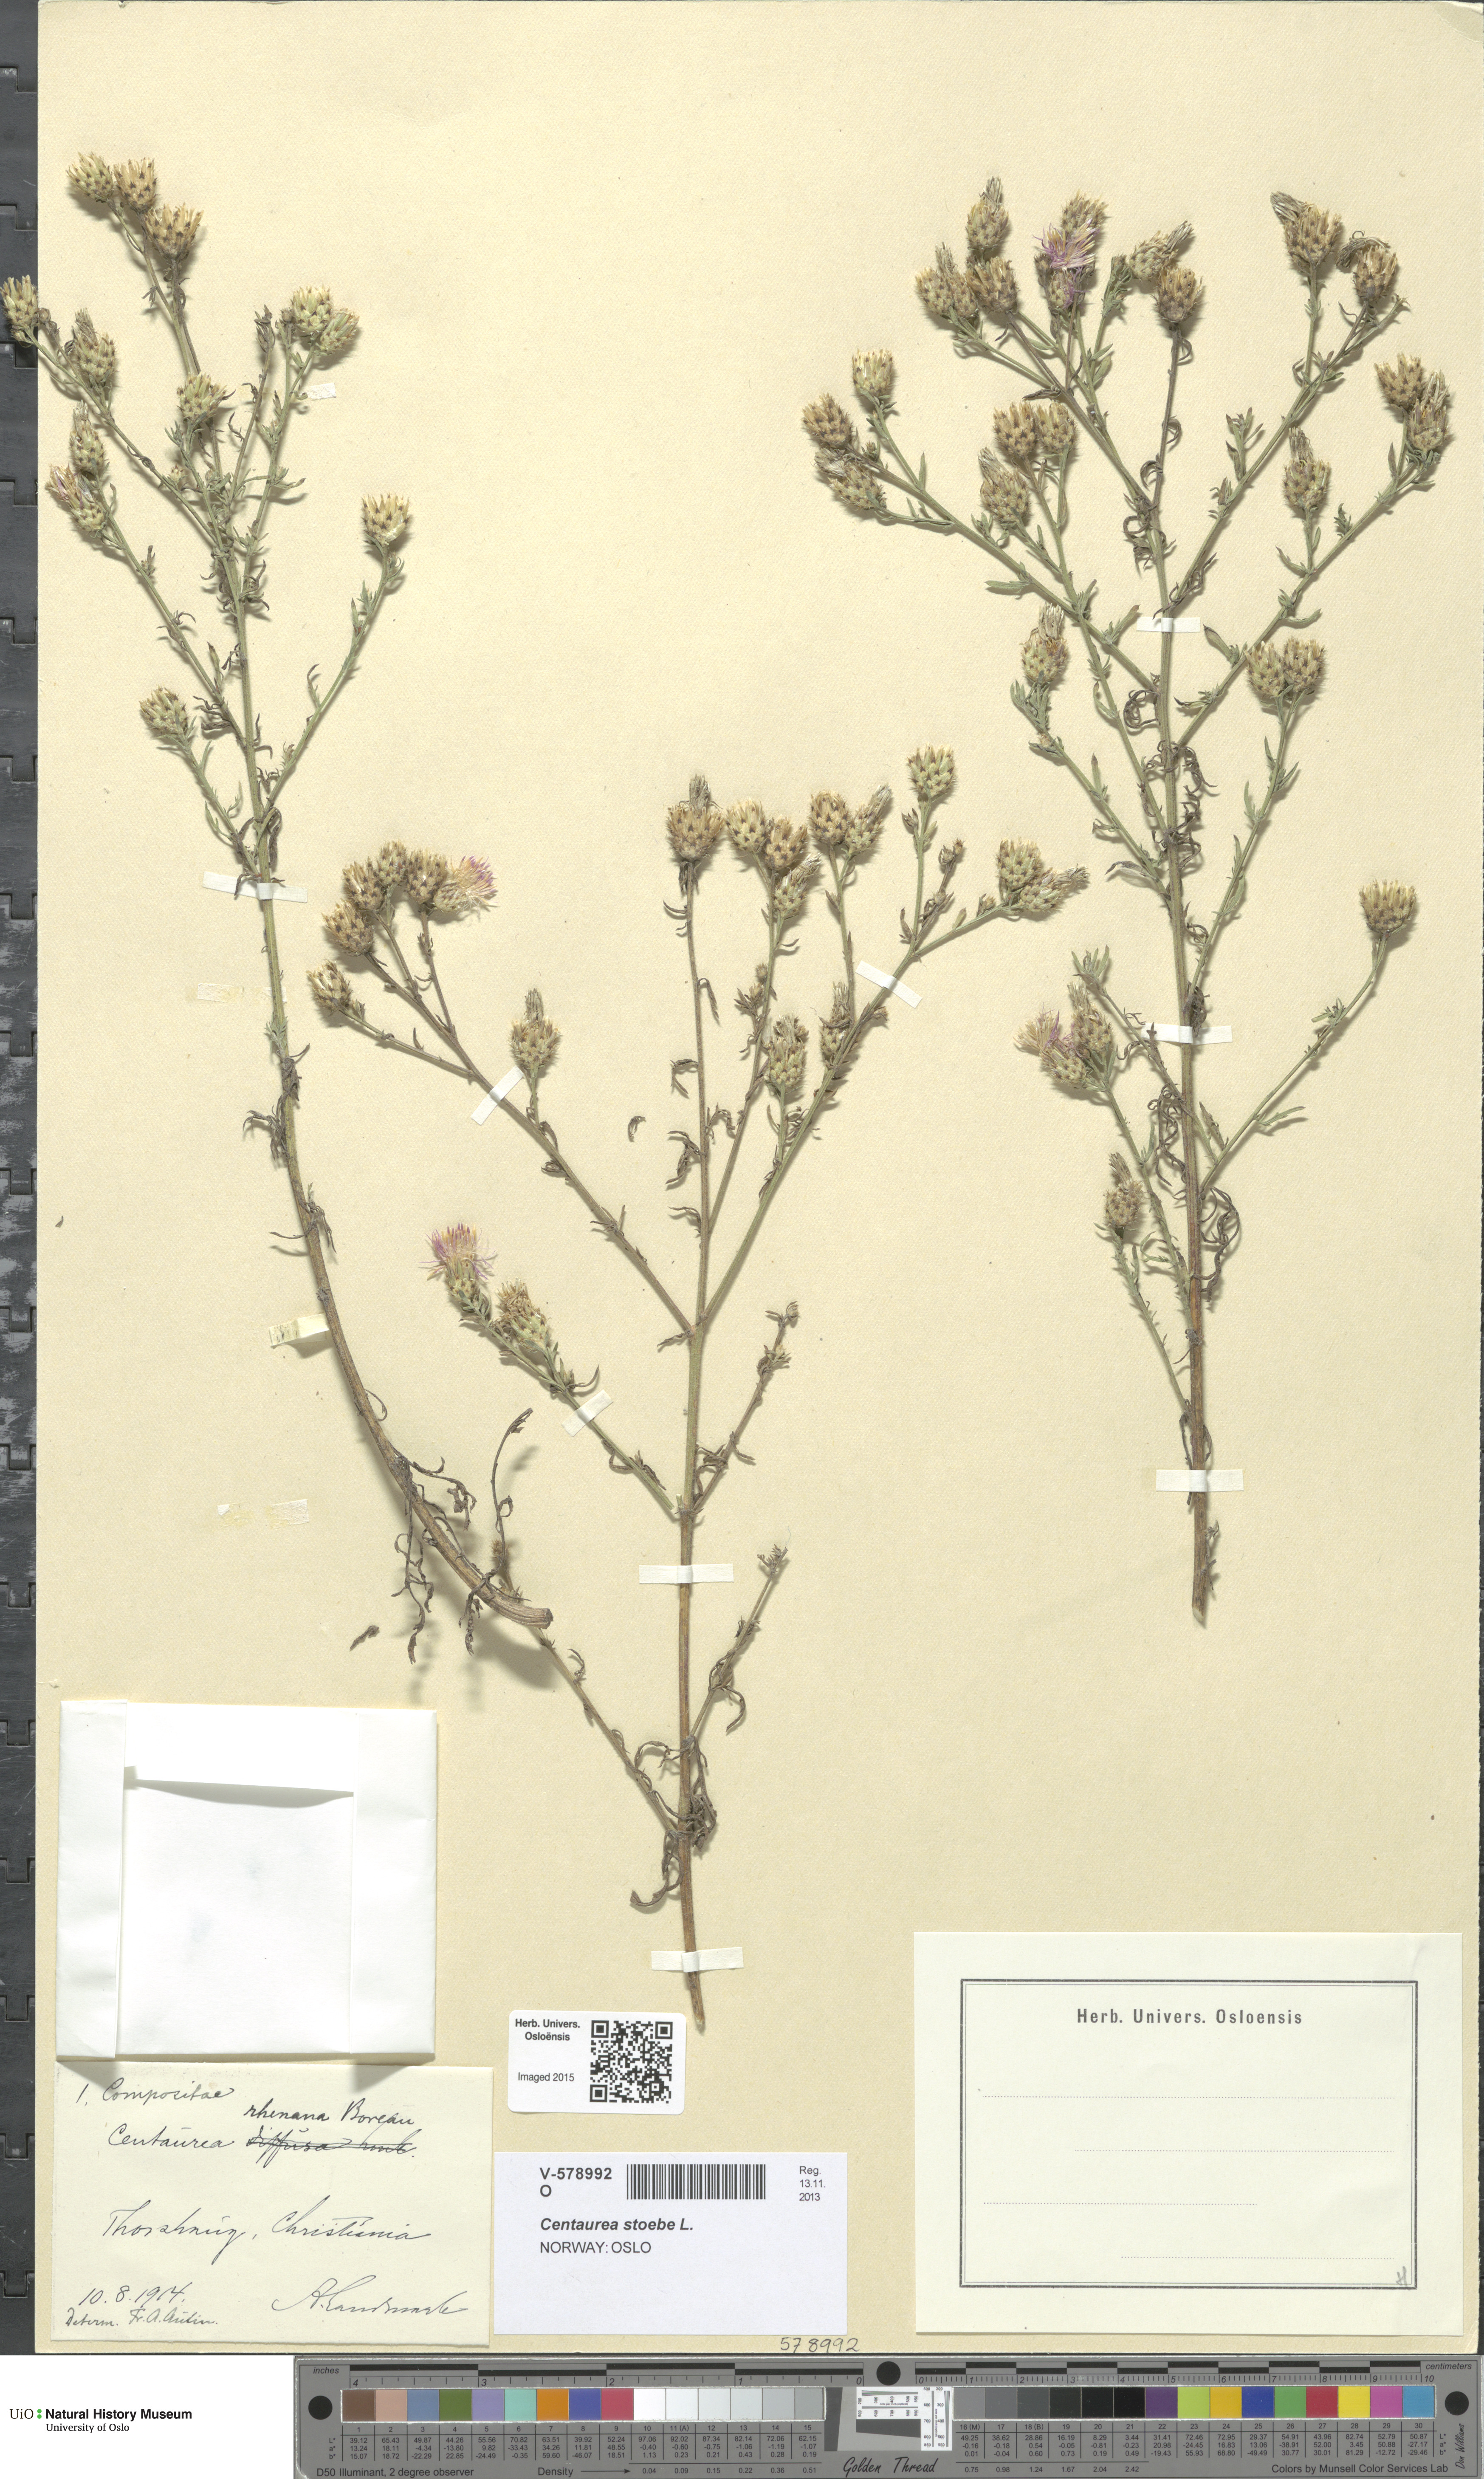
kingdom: Plantae
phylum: Tracheophyta
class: Magnoliopsida
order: Asterales
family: Asteraceae
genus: Centaurea
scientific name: Centaurea stoebe
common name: Spotted knapweed
